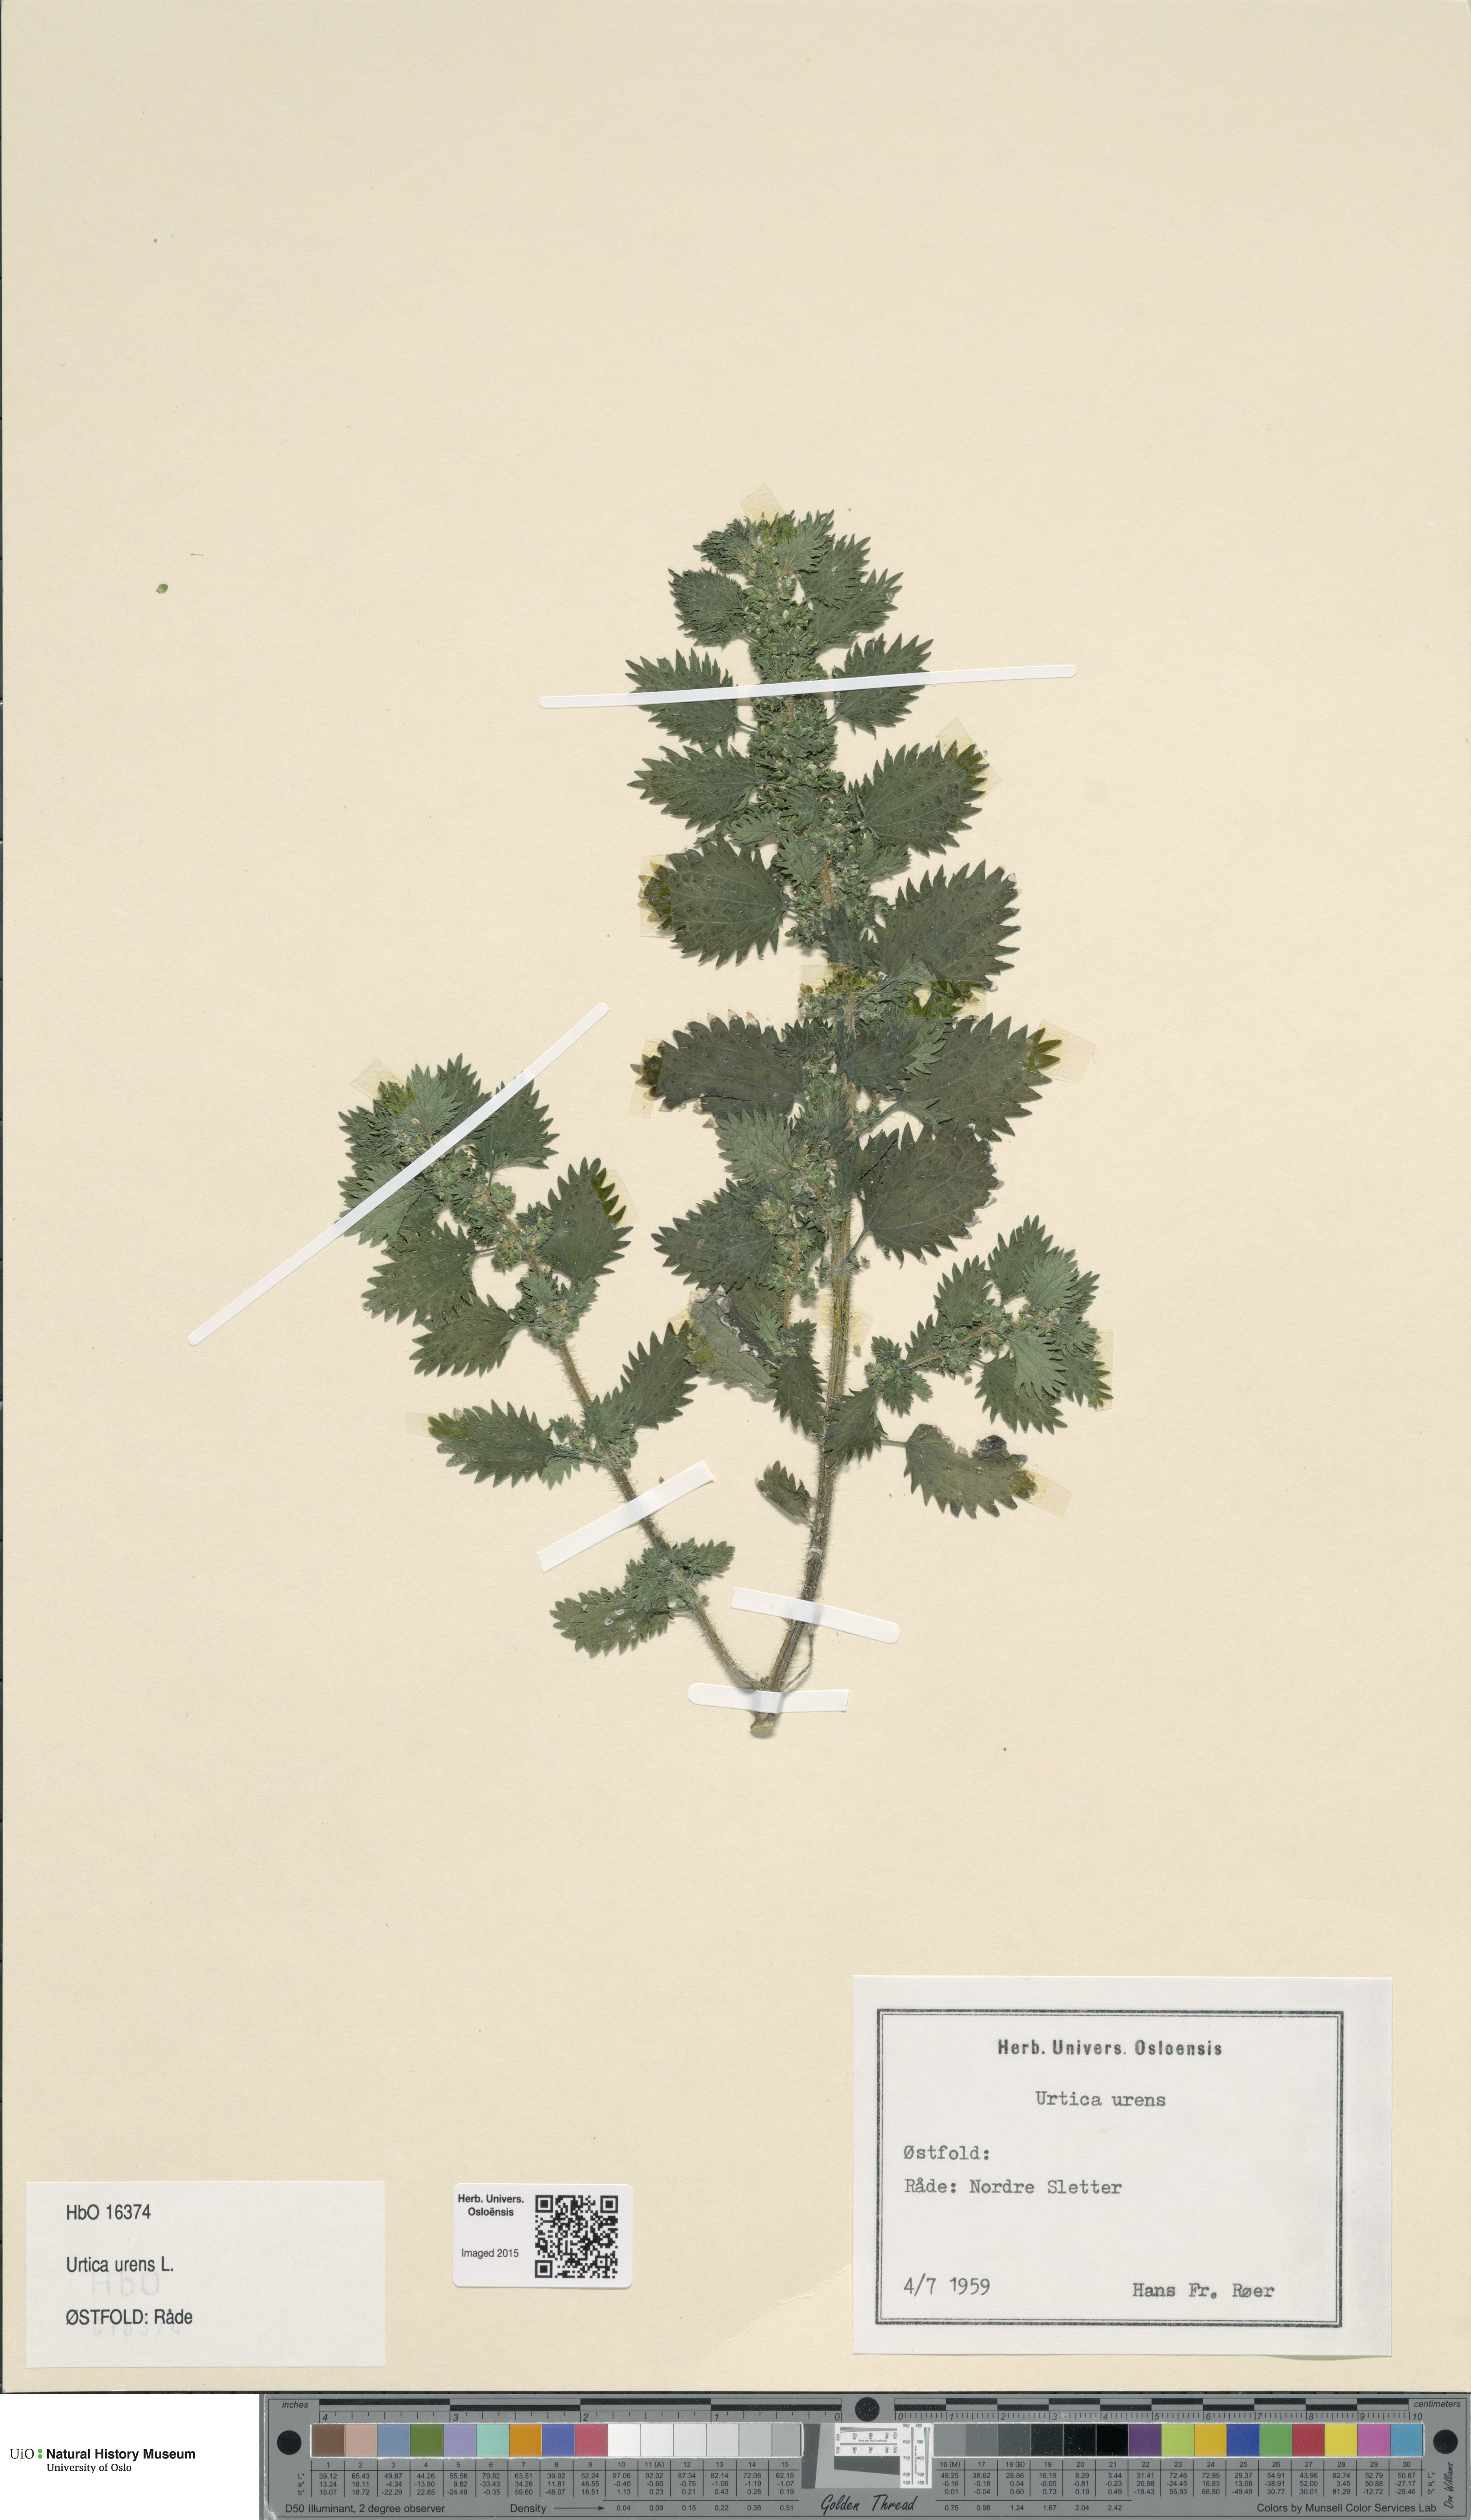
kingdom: Plantae
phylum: Tracheophyta
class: Magnoliopsida
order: Rosales
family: Urticaceae
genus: Urtica
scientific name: Urtica urens
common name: Dwarf nettle
